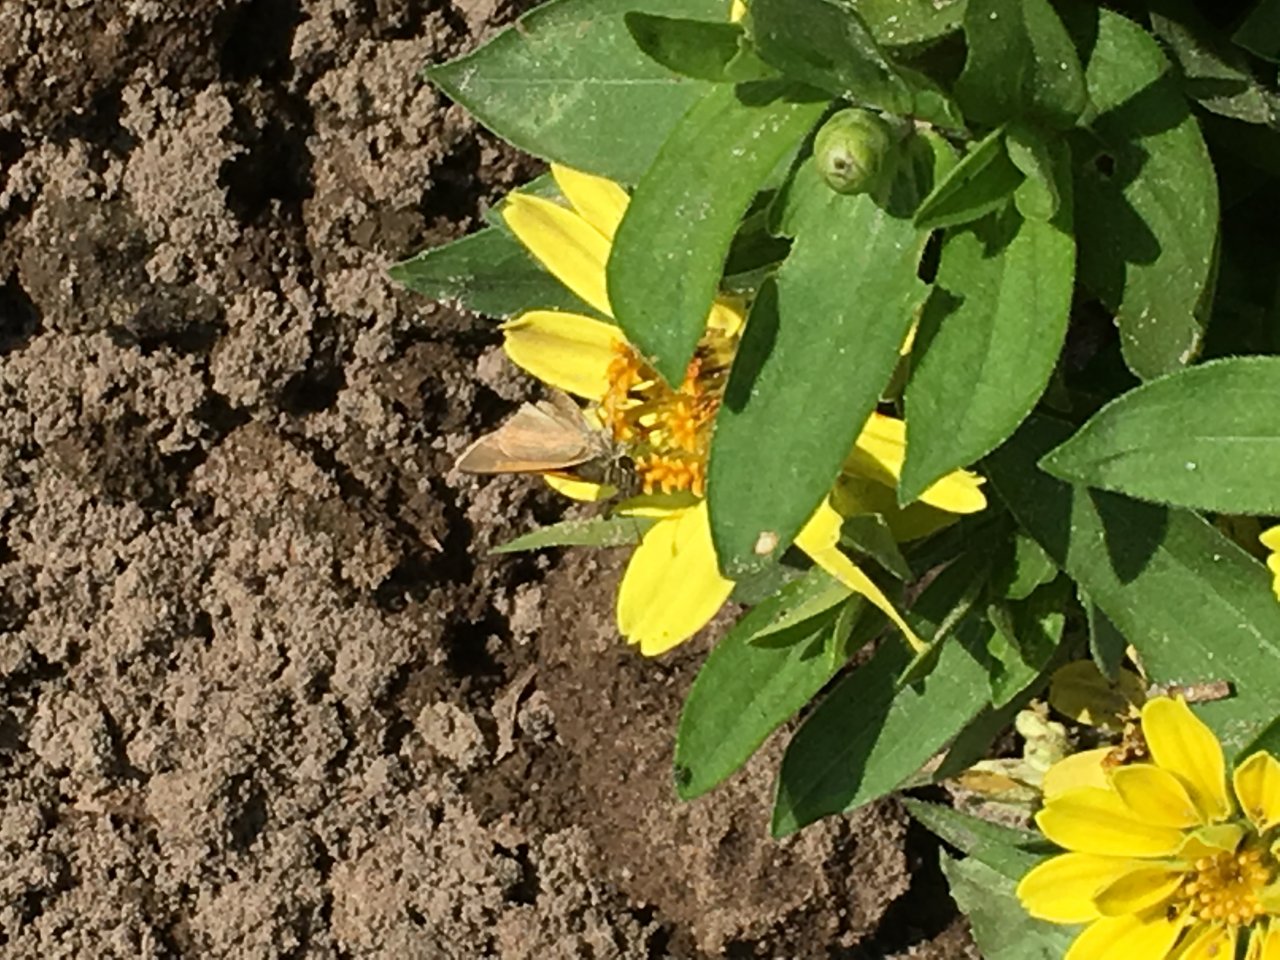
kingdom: Animalia
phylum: Arthropoda
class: Insecta
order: Lepidoptera
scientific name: Lepidoptera
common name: Butterflies
